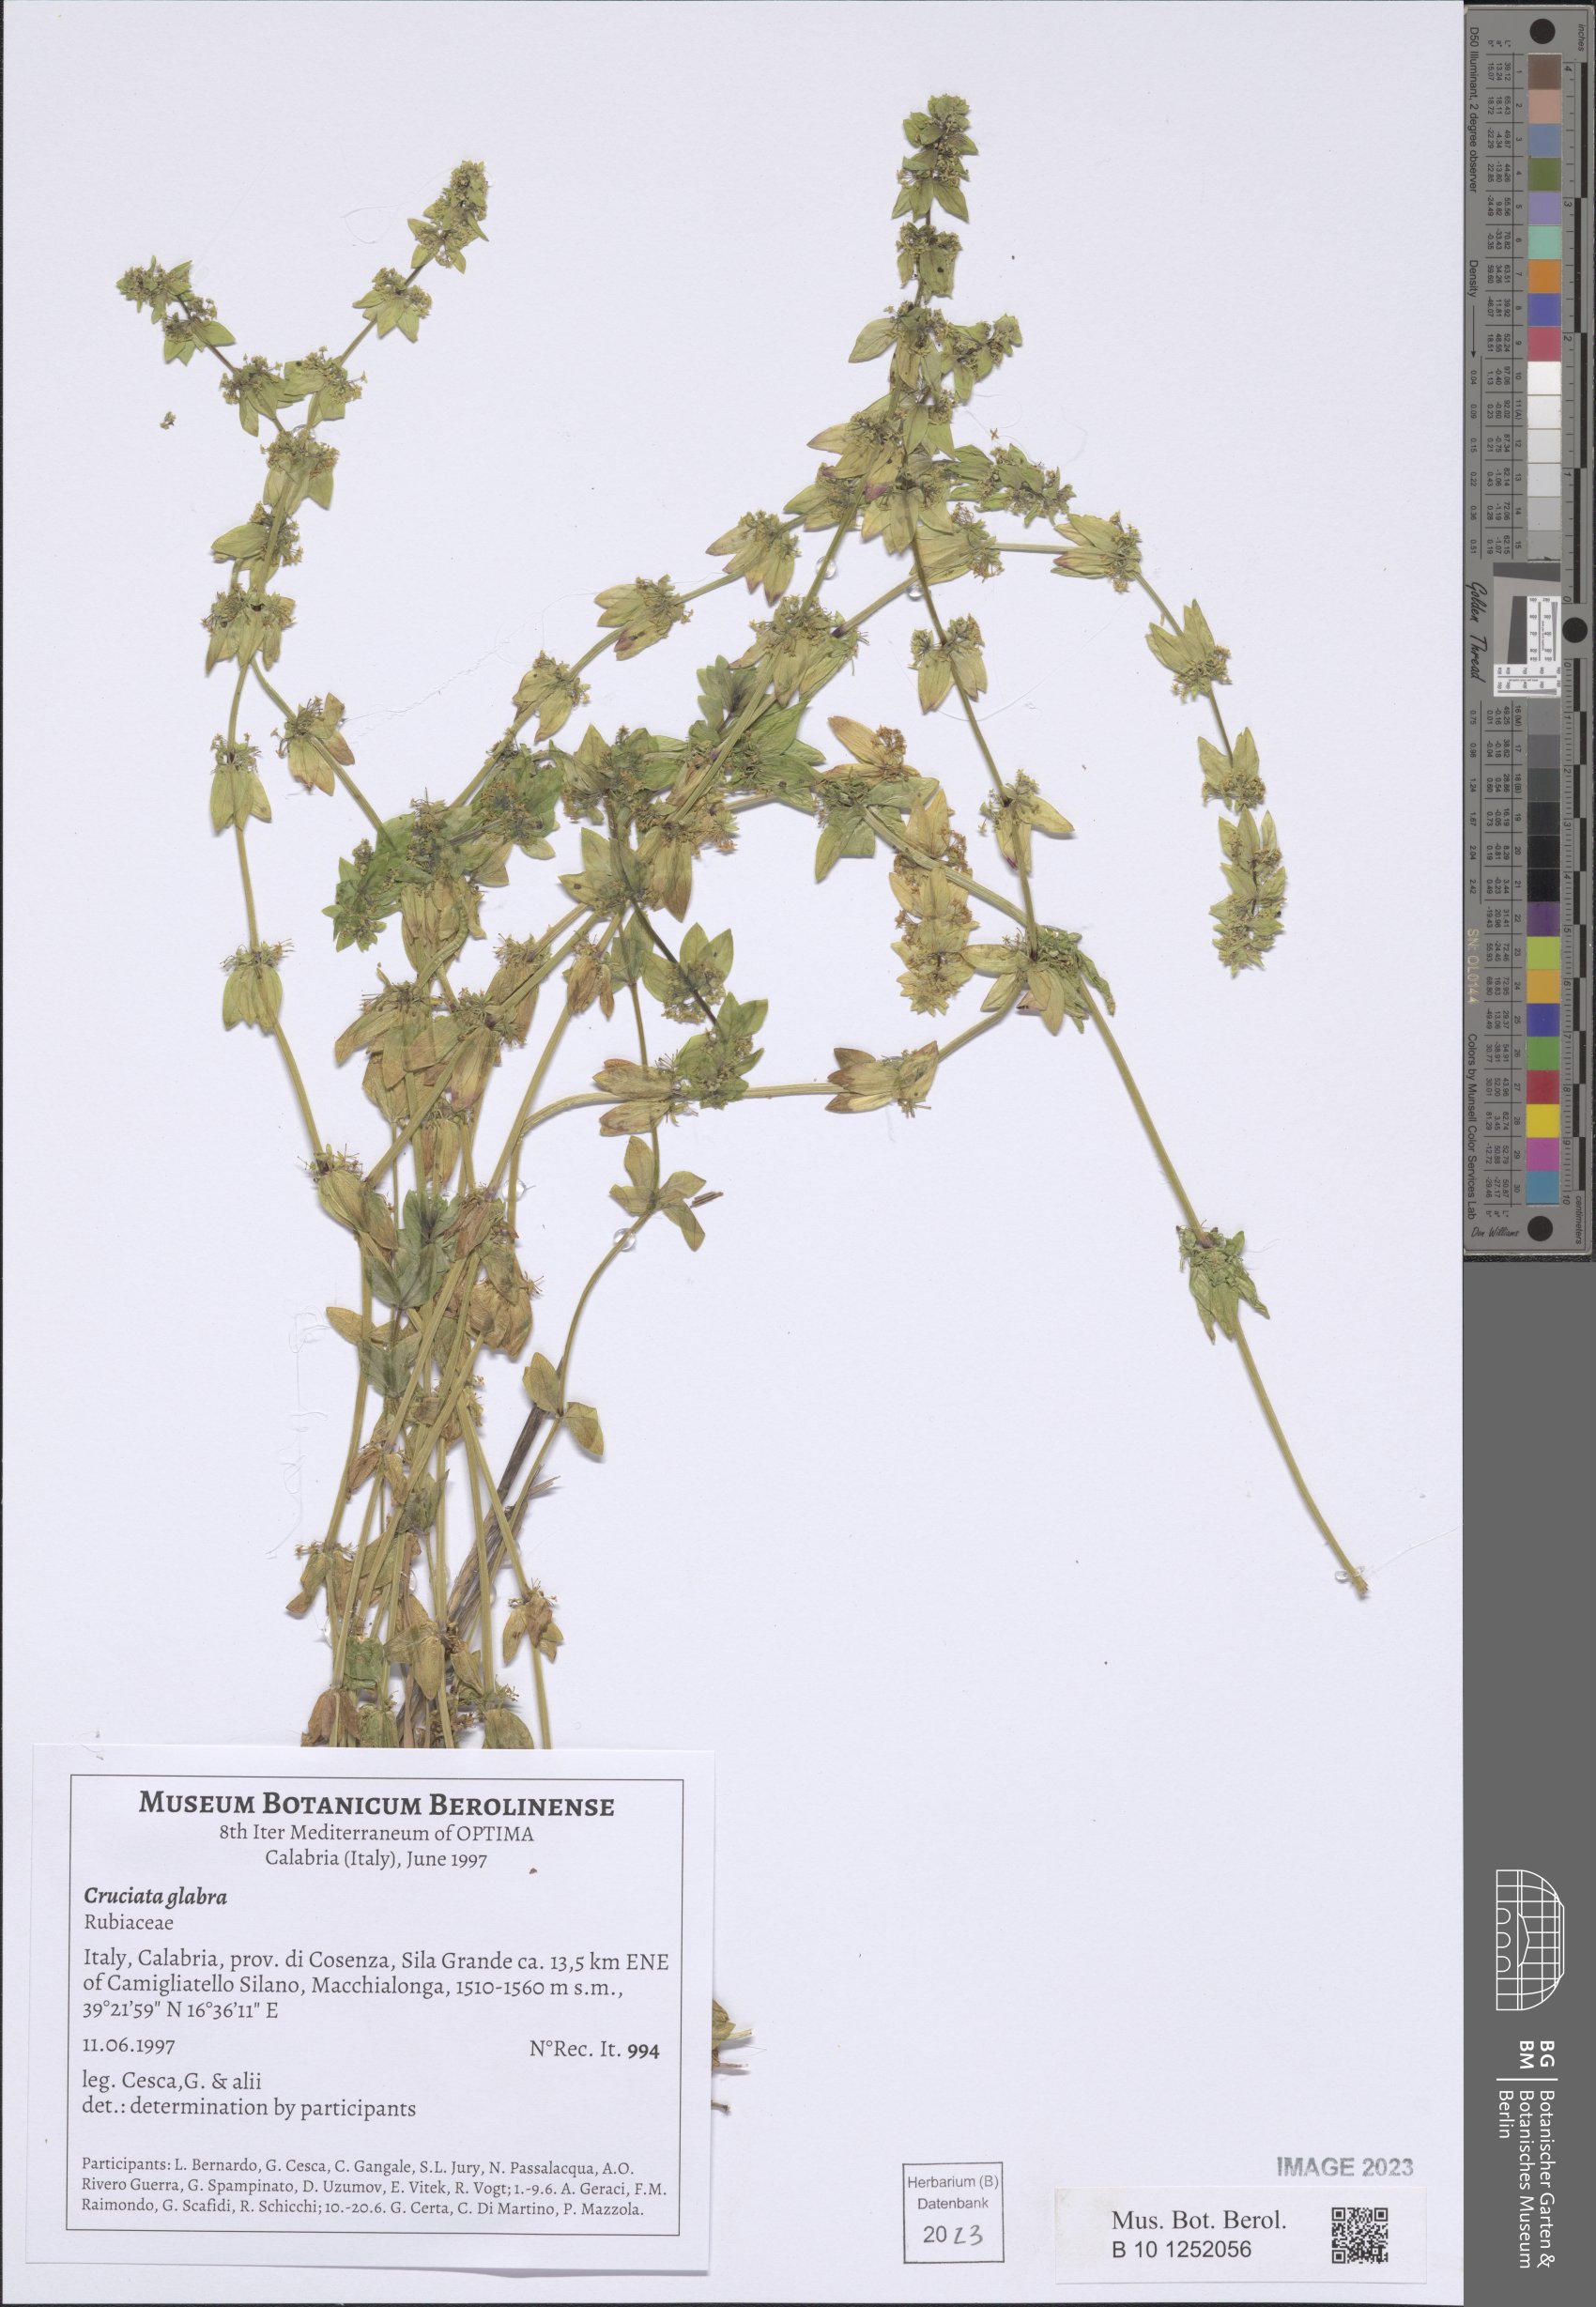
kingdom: Plantae
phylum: Tracheophyta
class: Magnoliopsida
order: Gentianales
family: Rubiaceae
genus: Cruciata
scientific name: Cruciata glabra
